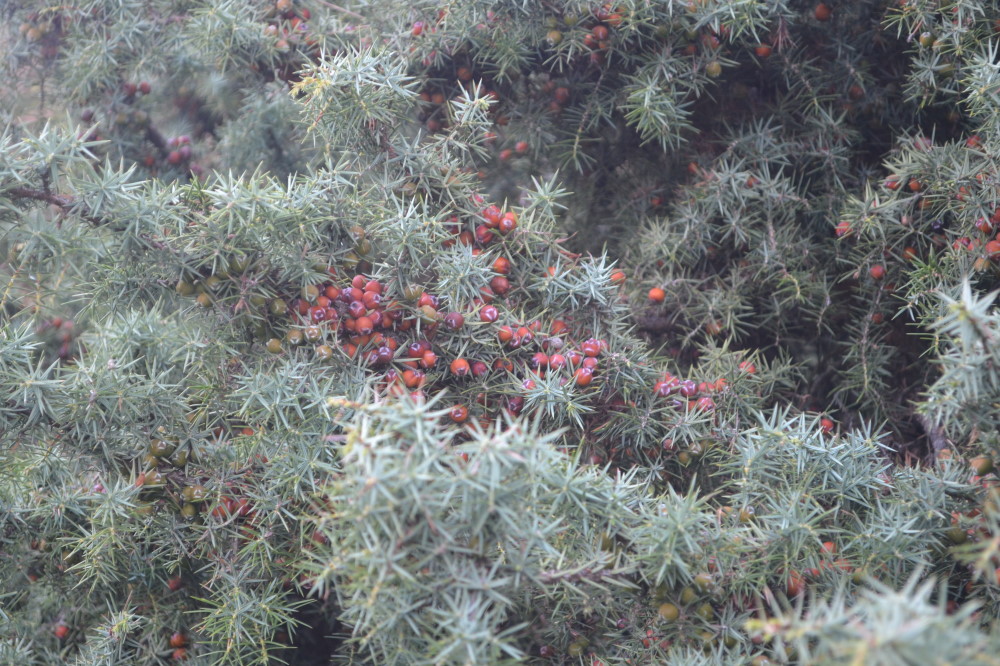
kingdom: Plantae
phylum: Tracheophyta
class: Pinopsida
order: Pinales
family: Cupressaceae
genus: Juniperus
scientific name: Juniperus oxycedrus
